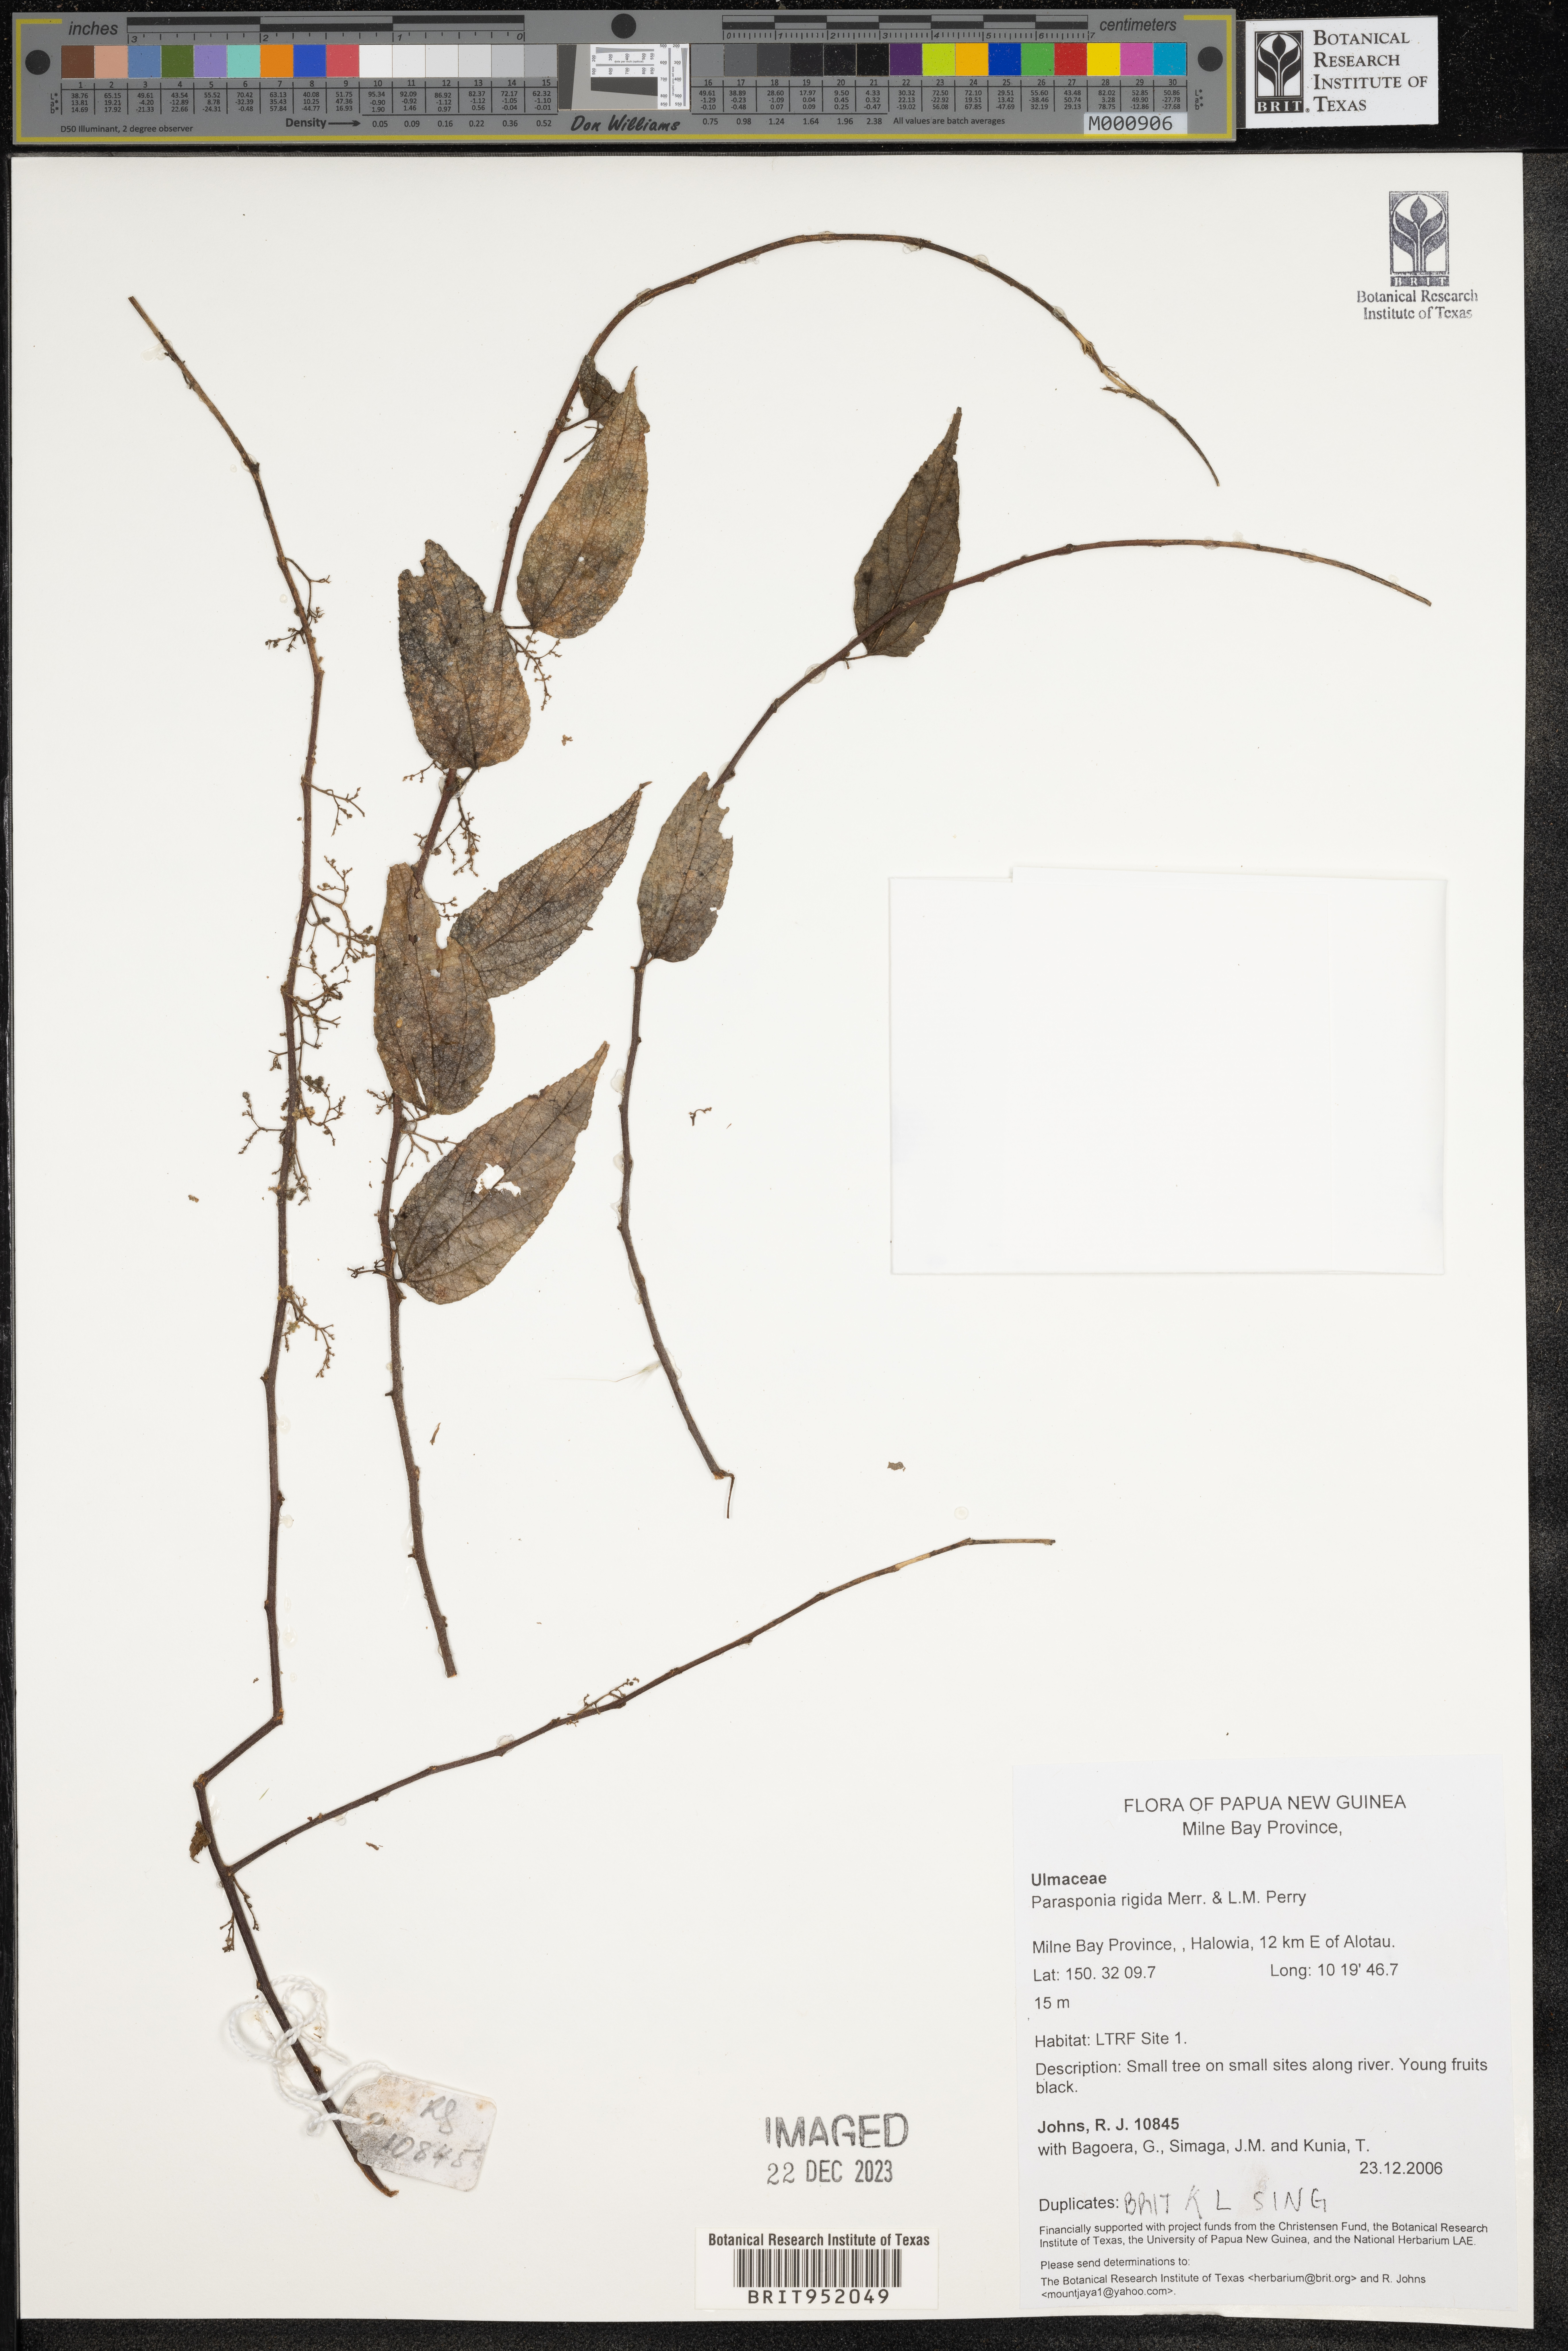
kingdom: Plantae
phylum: Tracheophyta
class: Magnoliopsida
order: Rosales
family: Cannabaceae
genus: Trema
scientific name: Trema
